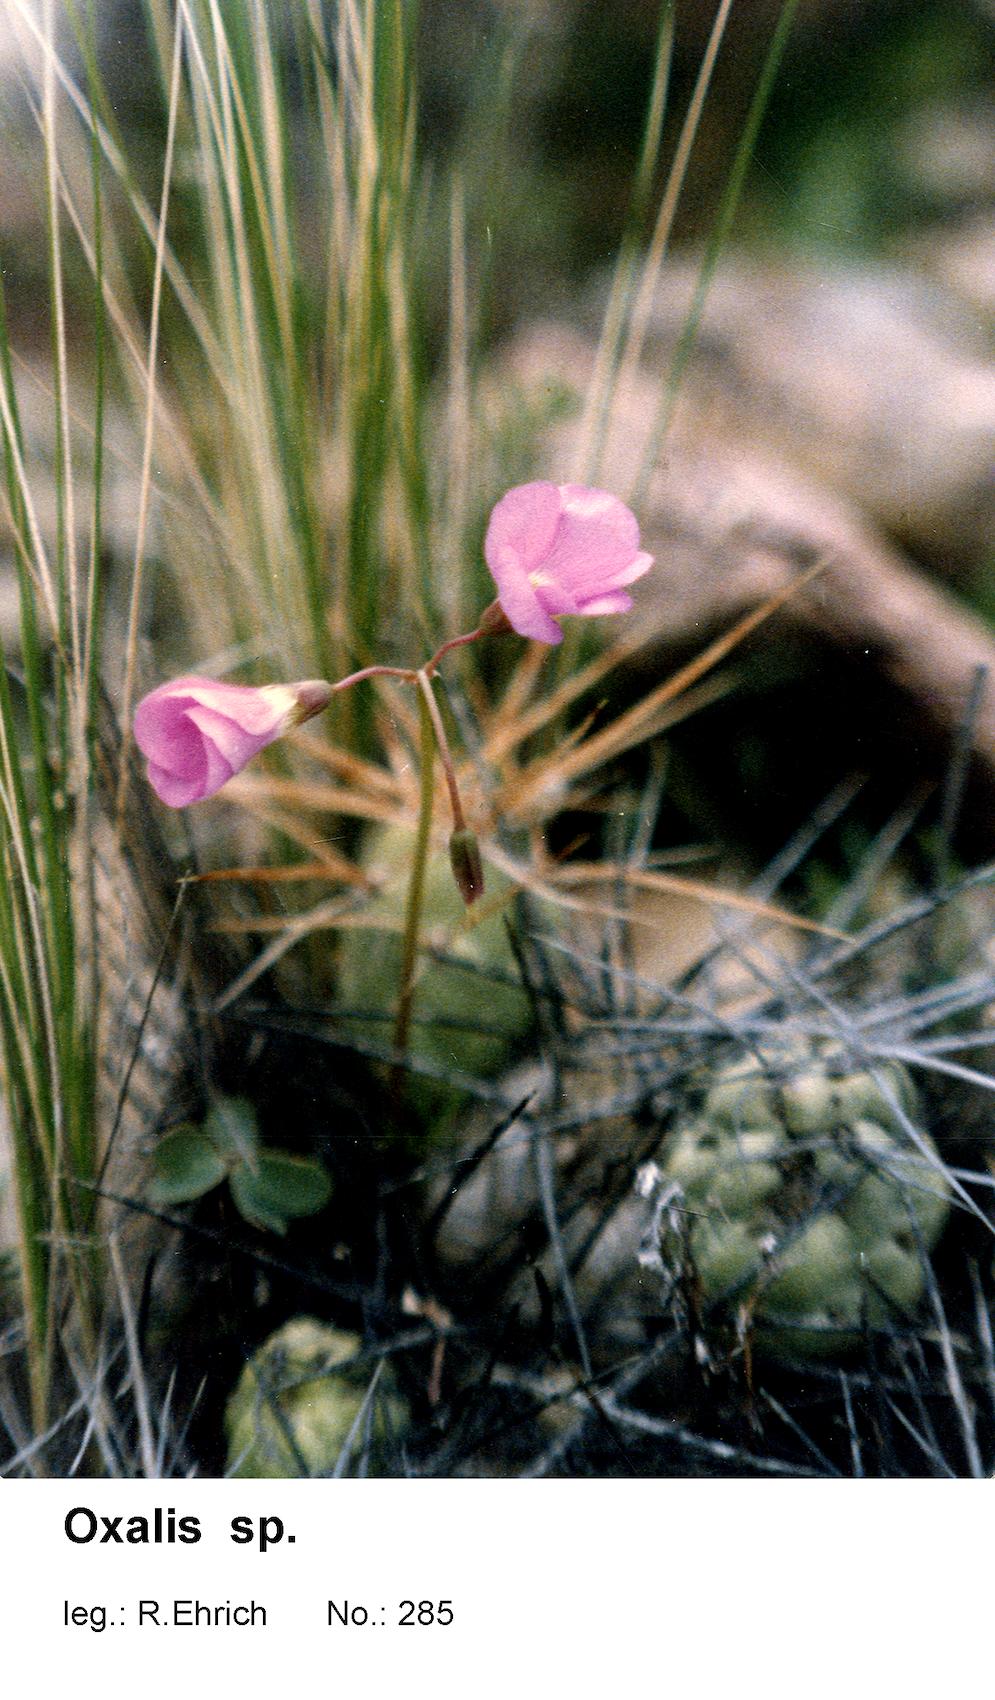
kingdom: Plantae
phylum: Tracheophyta
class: Magnoliopsida
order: Oxalidales
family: Oxalidaceae
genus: Oxalis
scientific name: Oxalis pinguiculacea
